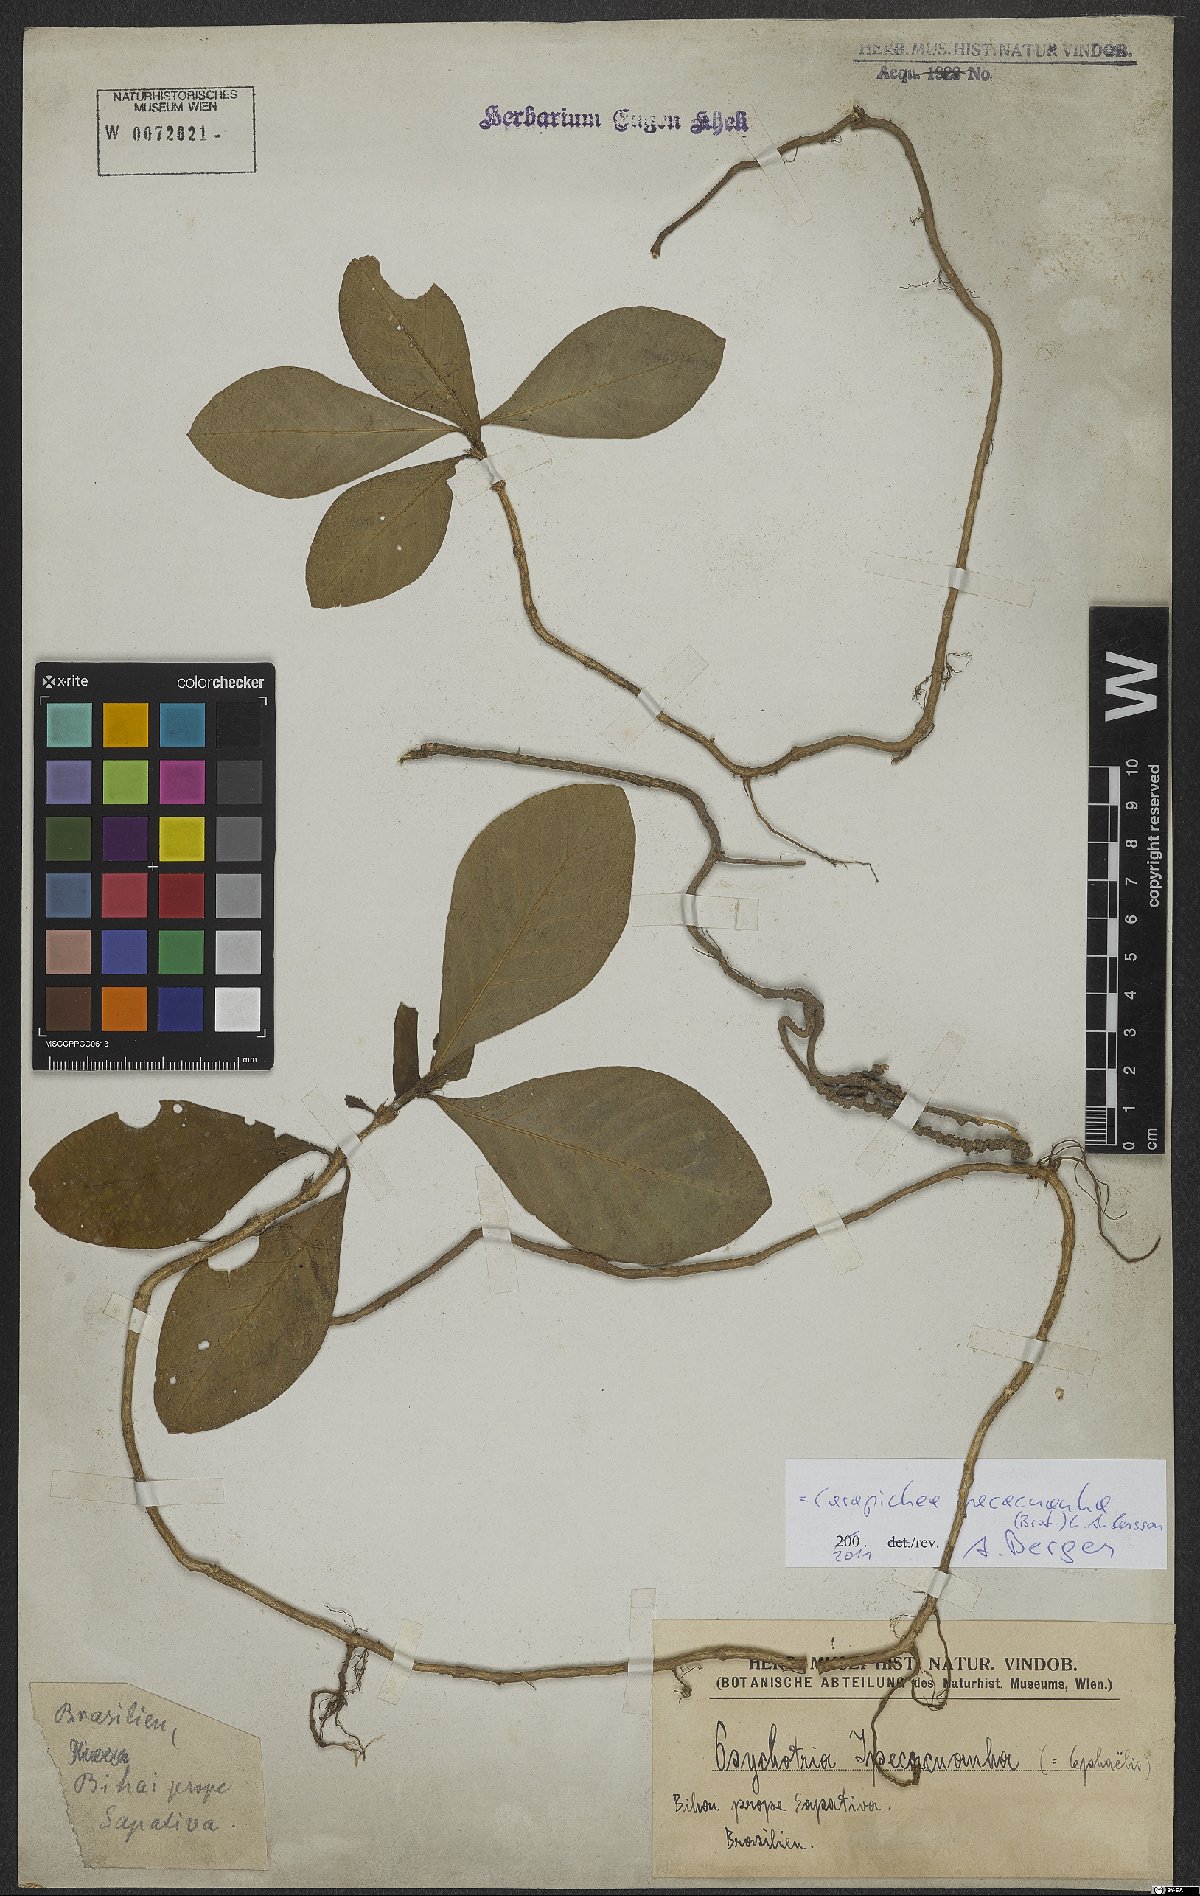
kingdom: Plantae
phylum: Tracheophyta
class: Magnoliopsida
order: Gentianales
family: Rubiaceae
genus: Carapichea
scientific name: Carapichea ipecacuanha
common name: Ipecac
